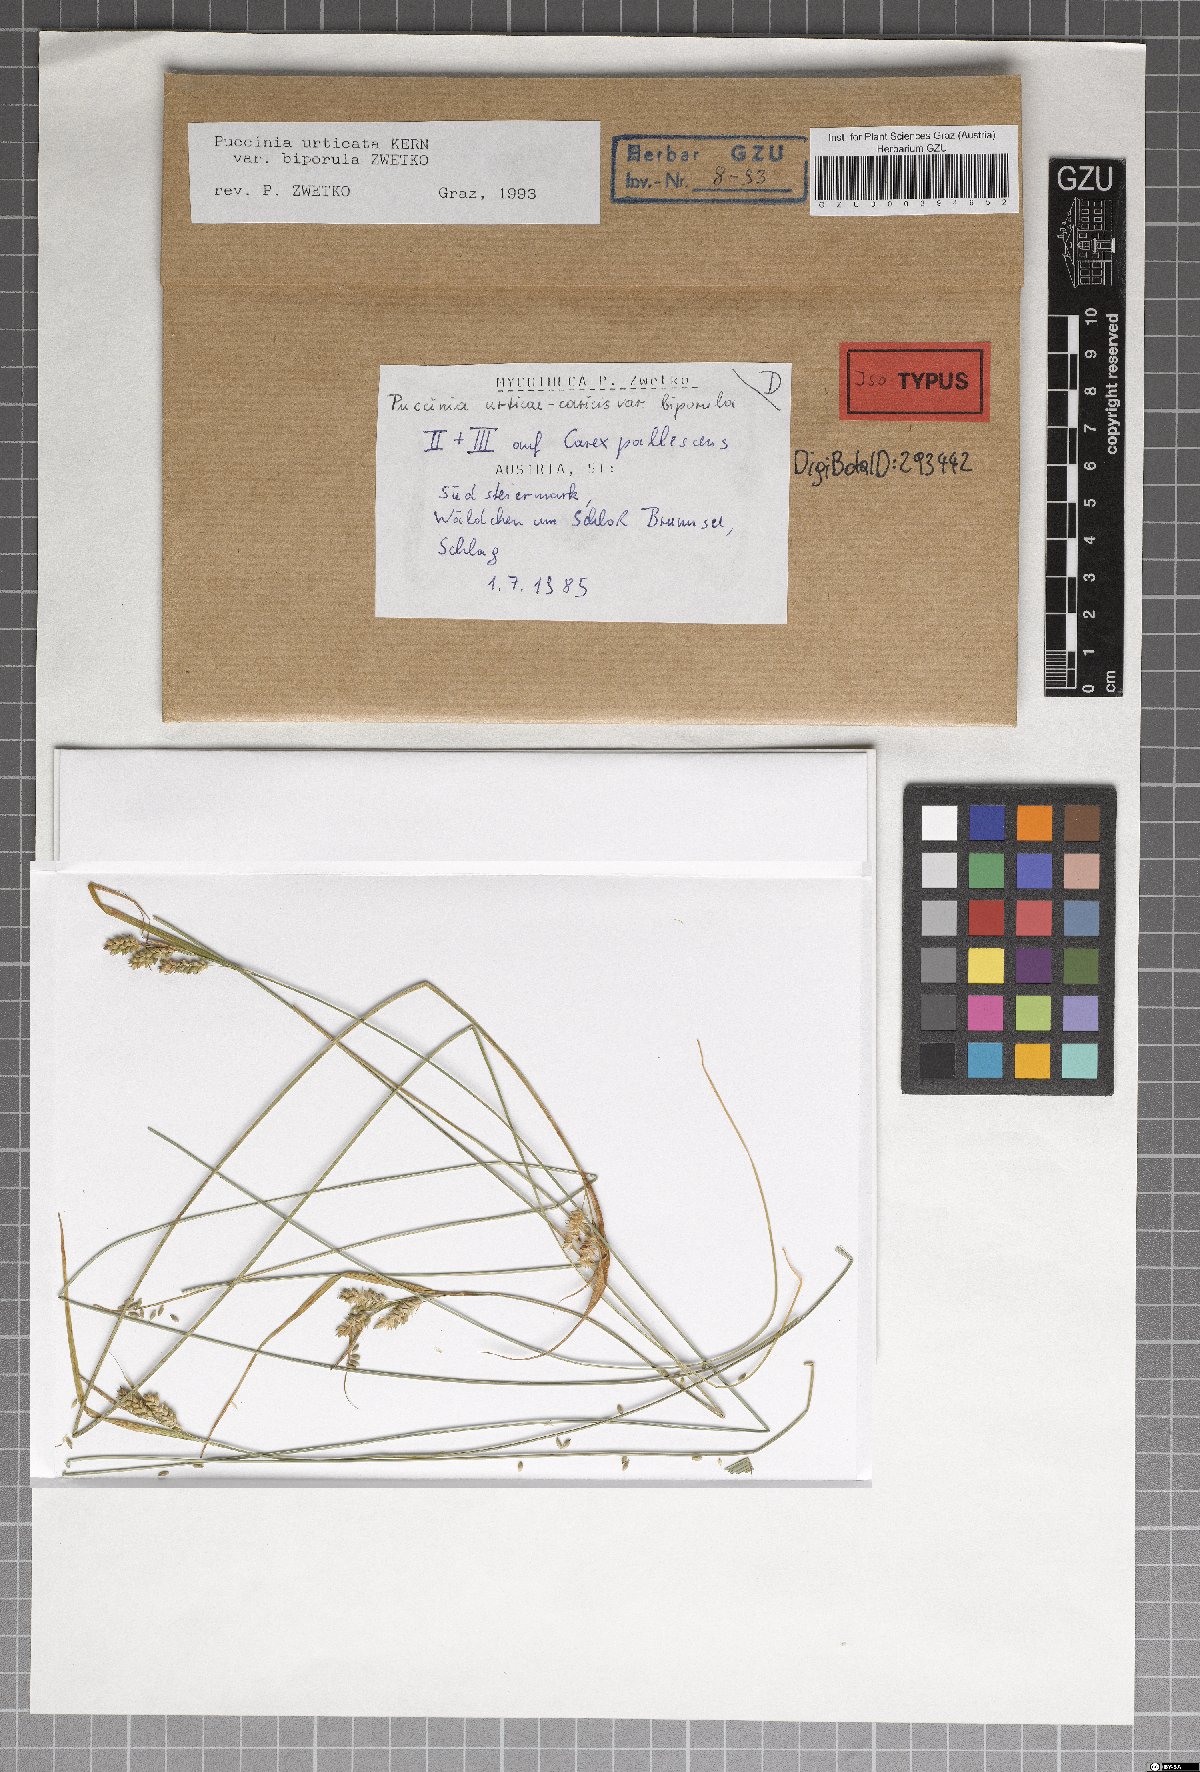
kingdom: Fungi
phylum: Basidiomycota
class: Pucciniomycetes
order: Pucciniales
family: Pucciniaceae
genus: Puccinia
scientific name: Puccinia biporospora
